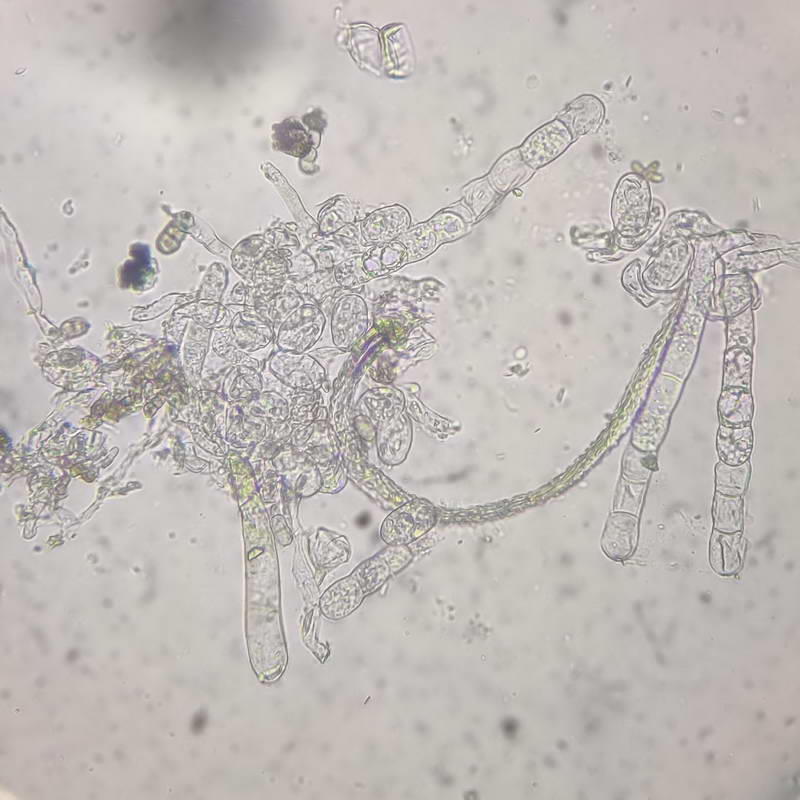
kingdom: Fungi
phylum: Ascomycota
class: Leotiomycetes
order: Helotiales
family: Erysiphaceae
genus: Podosphaera
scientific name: Podosphaera epilobii
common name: dueurt-meldug
